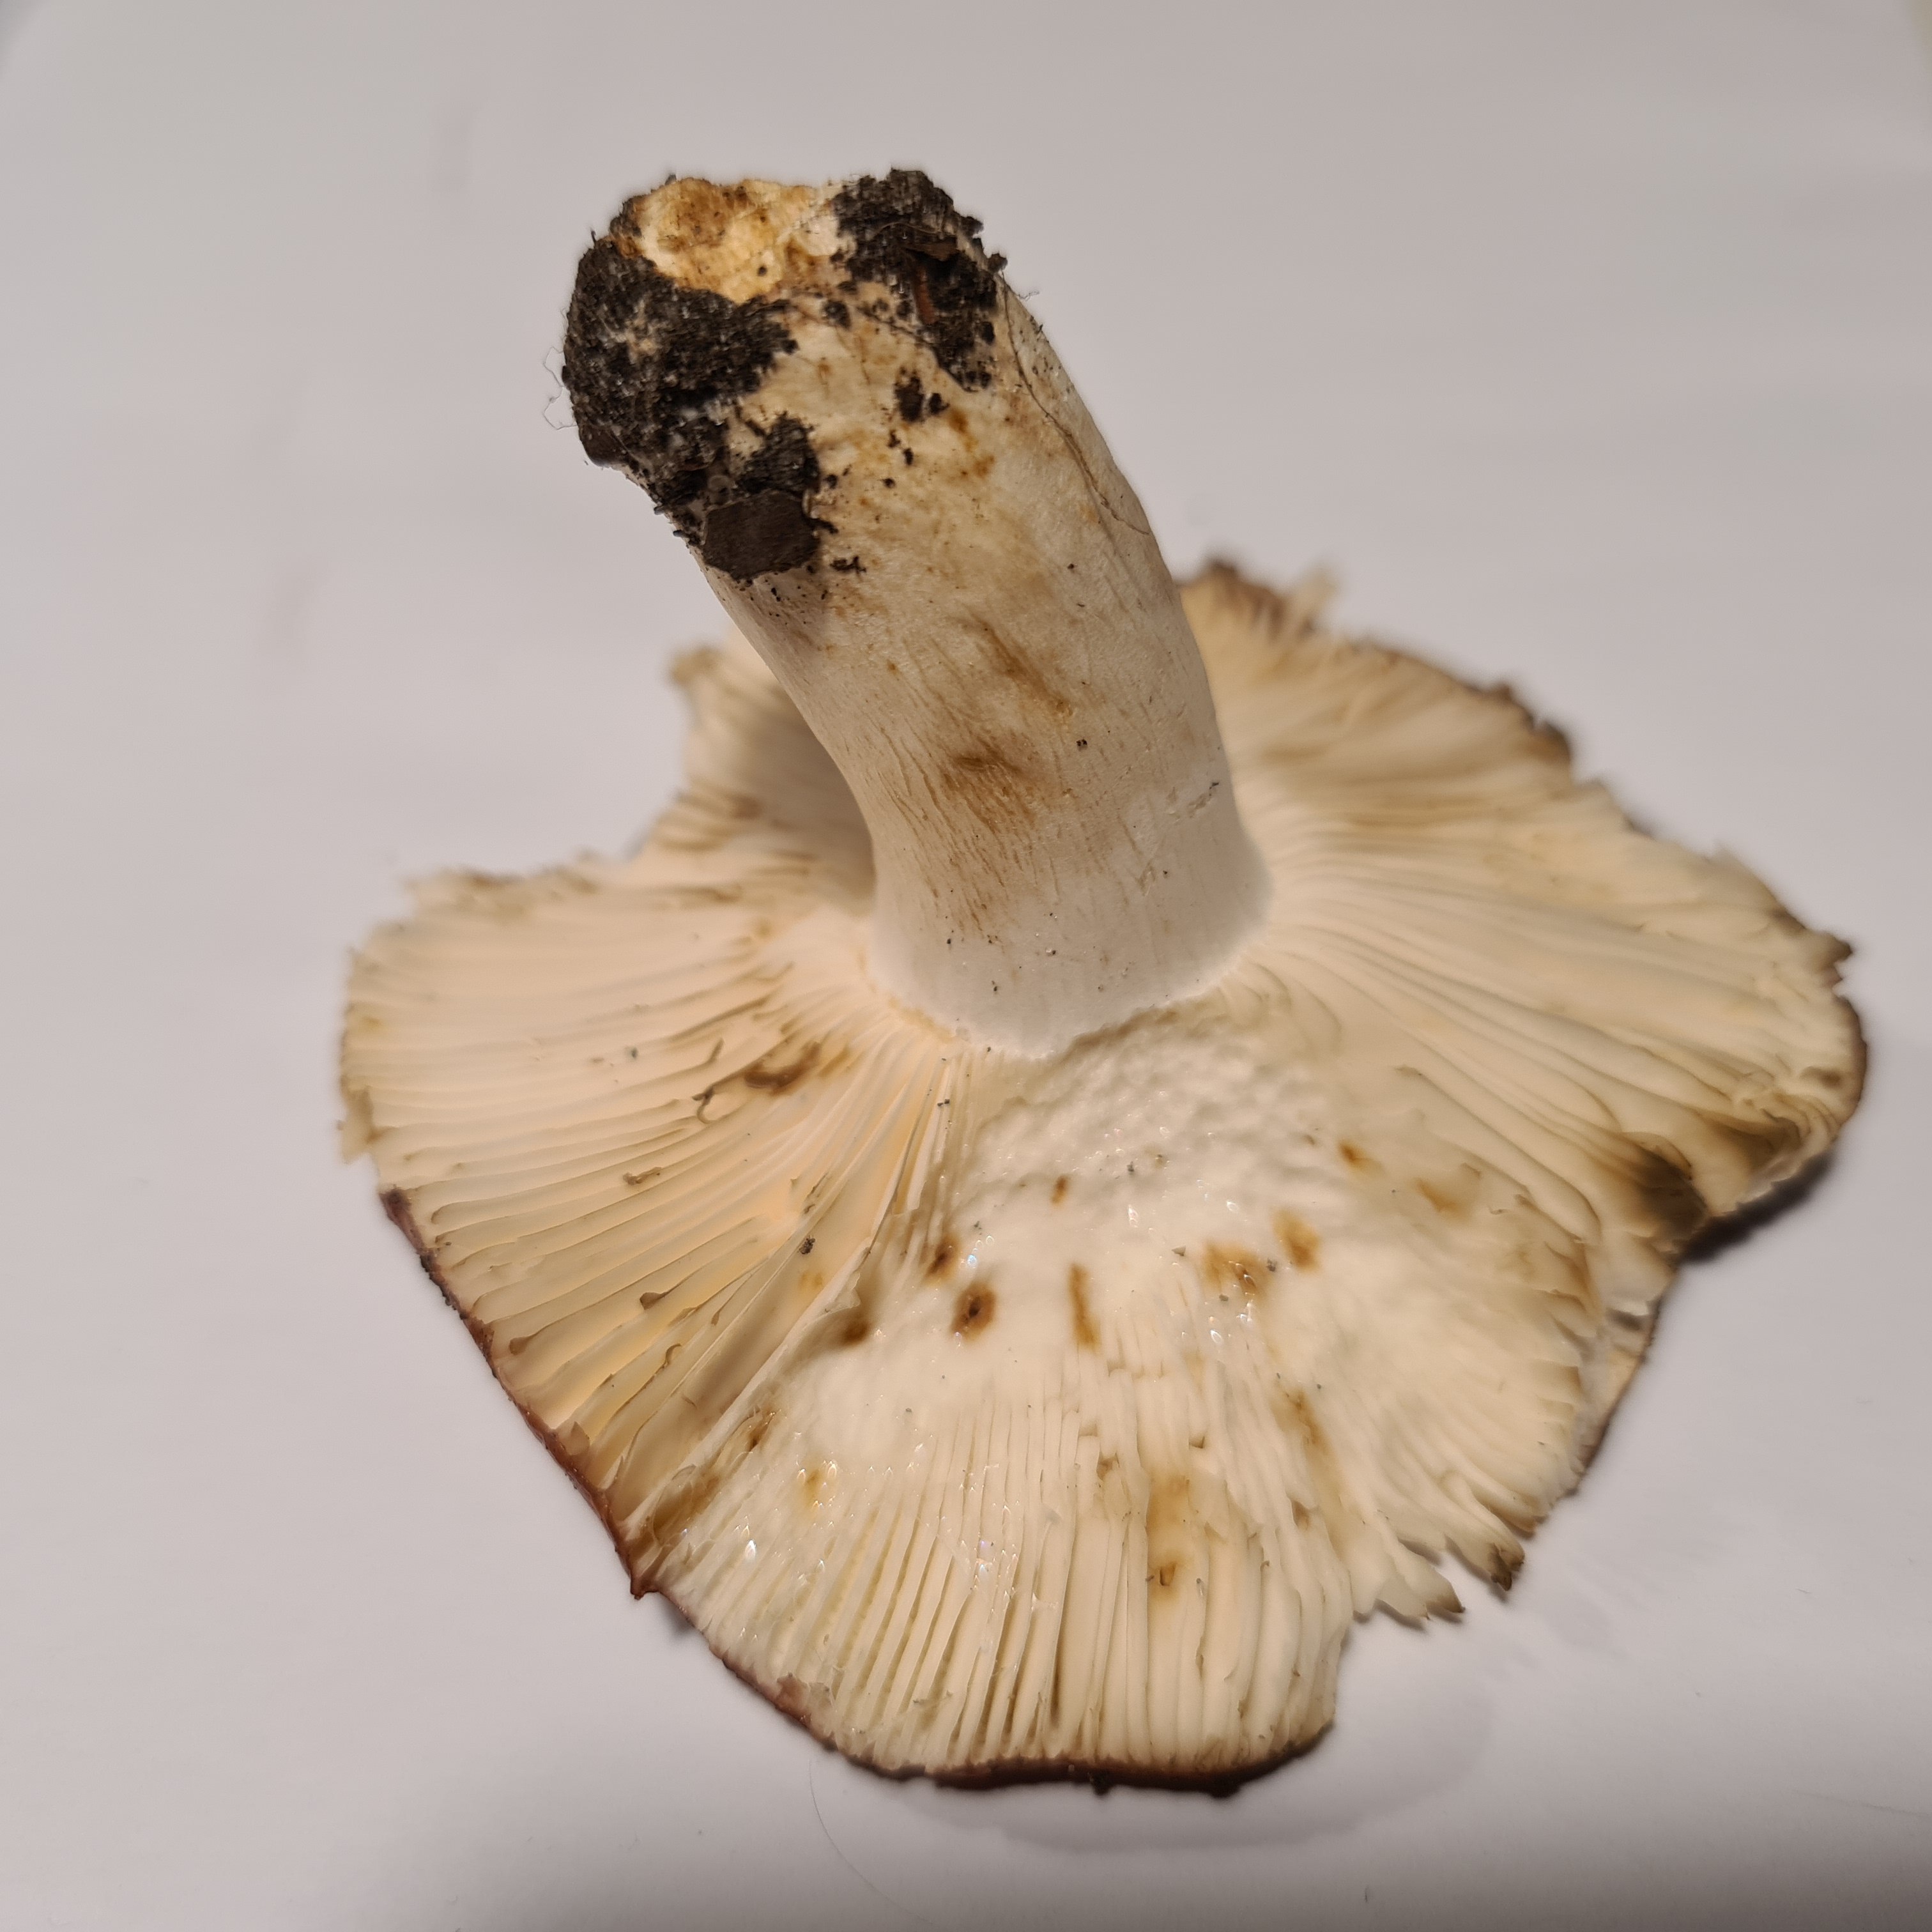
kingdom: Fungi
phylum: Basidiomycota
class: Agaricomycetes
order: Russulales
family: Russulaceae
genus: Russula
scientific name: Russula atropurpurea
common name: purpurbroget skørhat
